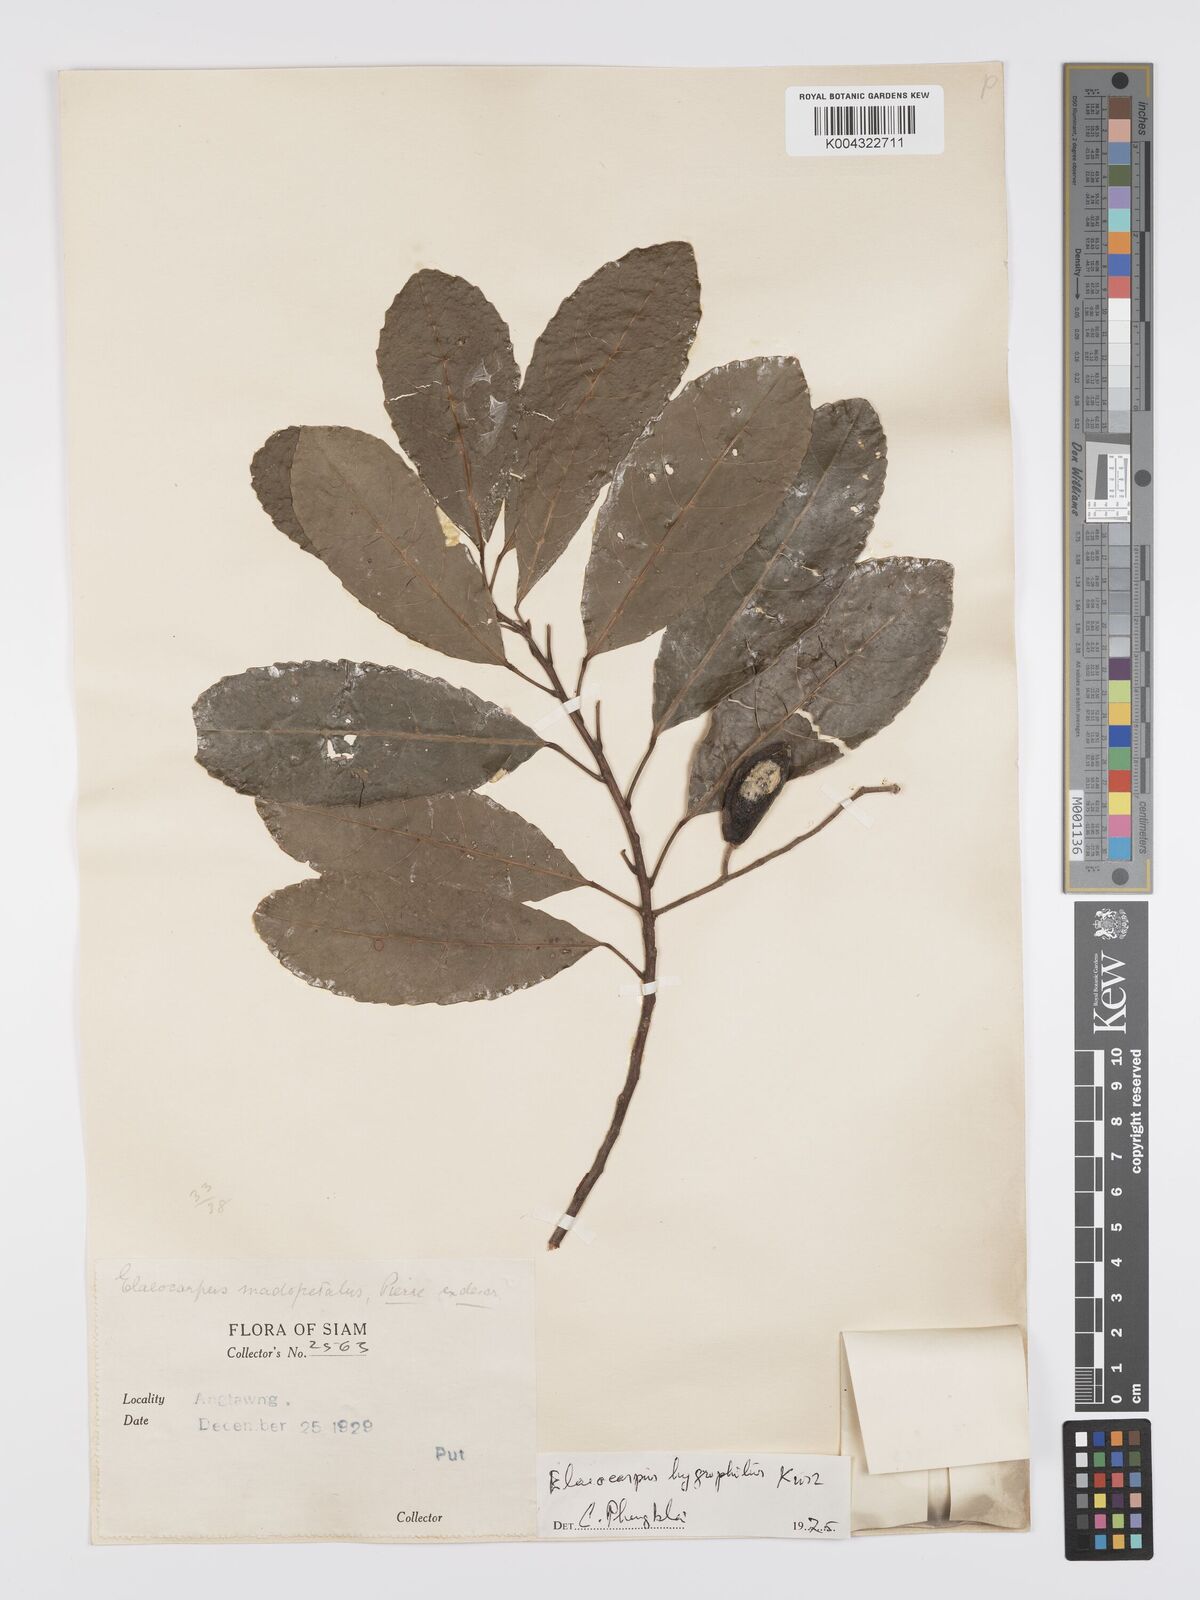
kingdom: Plantae
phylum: Tracheophyta
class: Magnoliopsida
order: Oxalidales
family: Elaeocarpaceae
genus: Elaeocarpus
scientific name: Elaeocarpus hygrophilus
